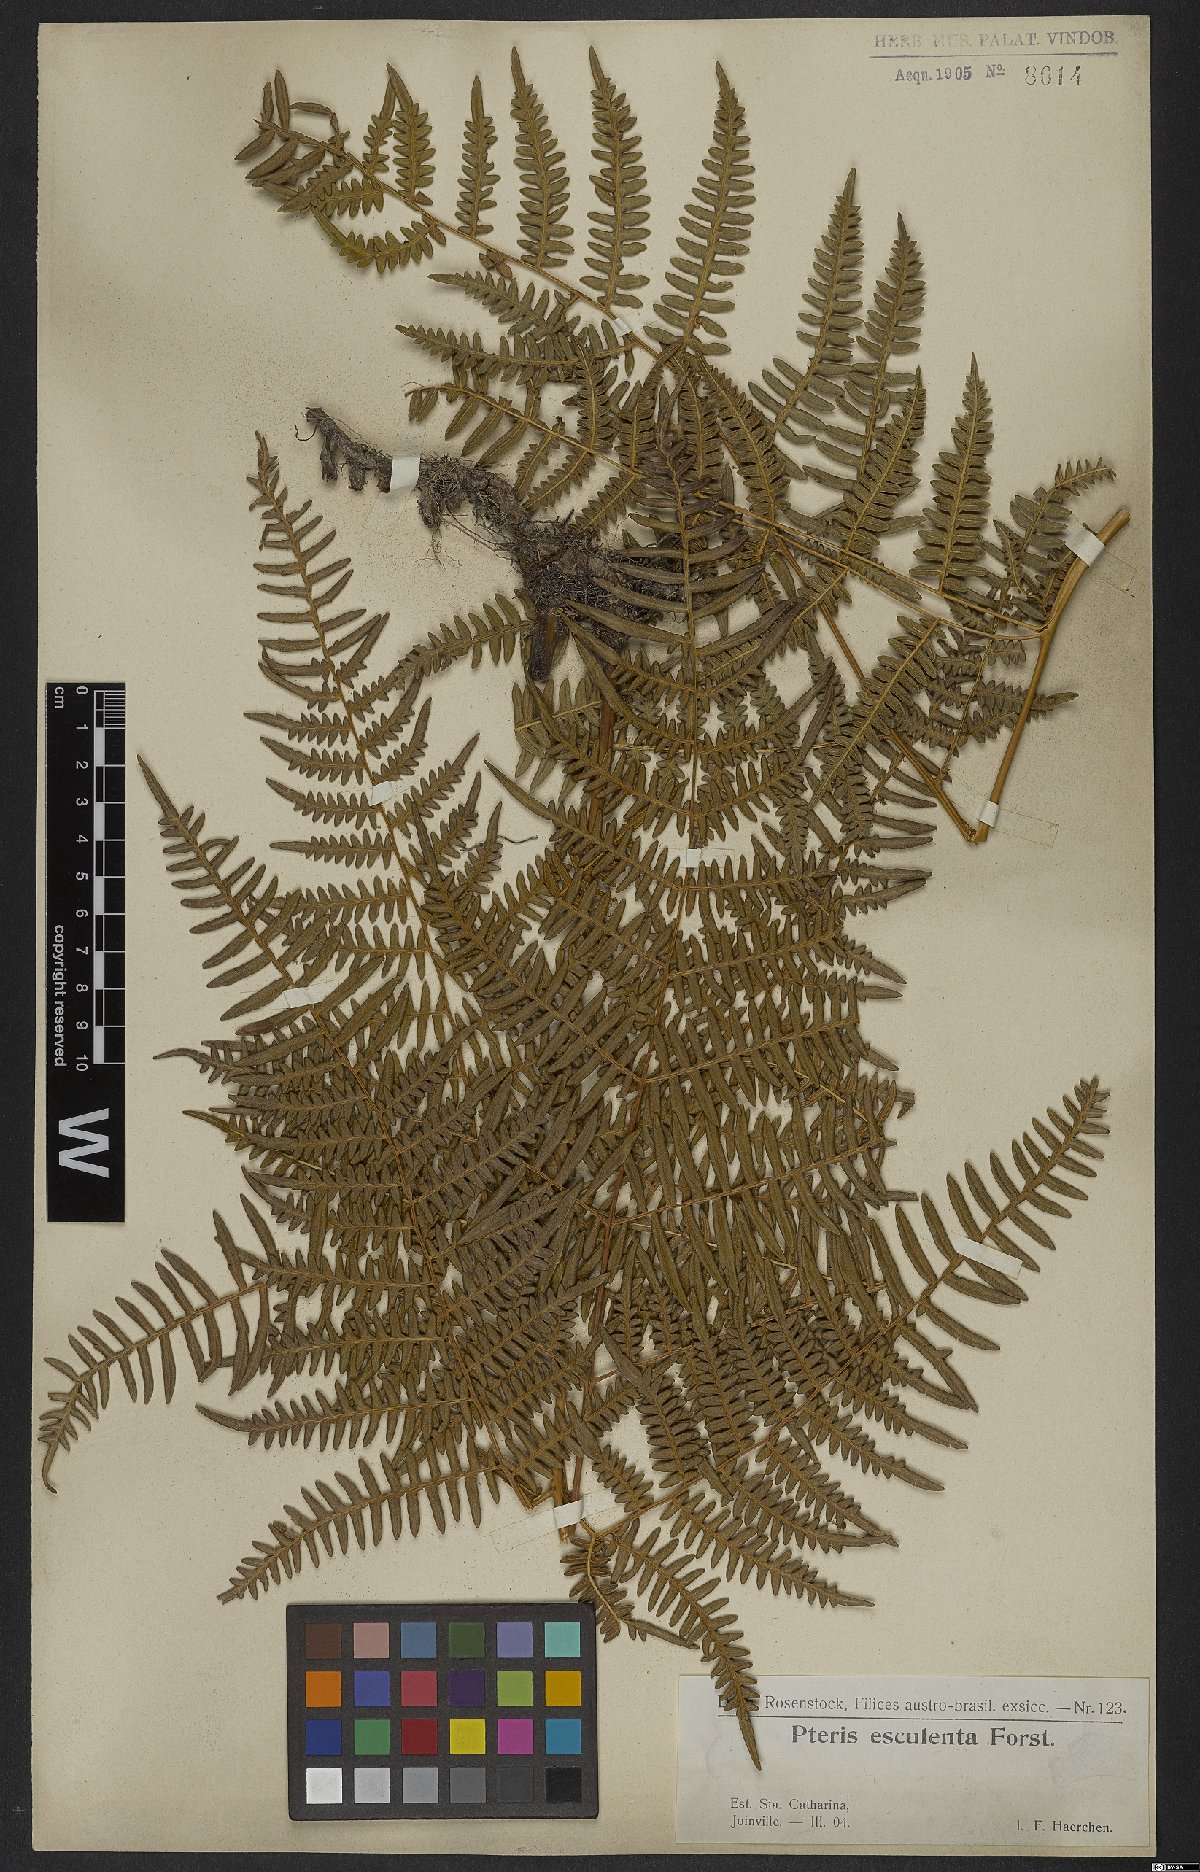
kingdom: Plantae
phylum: Tracheophyta
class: Polypodiopsida
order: Polypodiales
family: Dennstaedtiaceae
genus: Pteridium
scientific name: Pteridium esculentum
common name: Bracken fern
